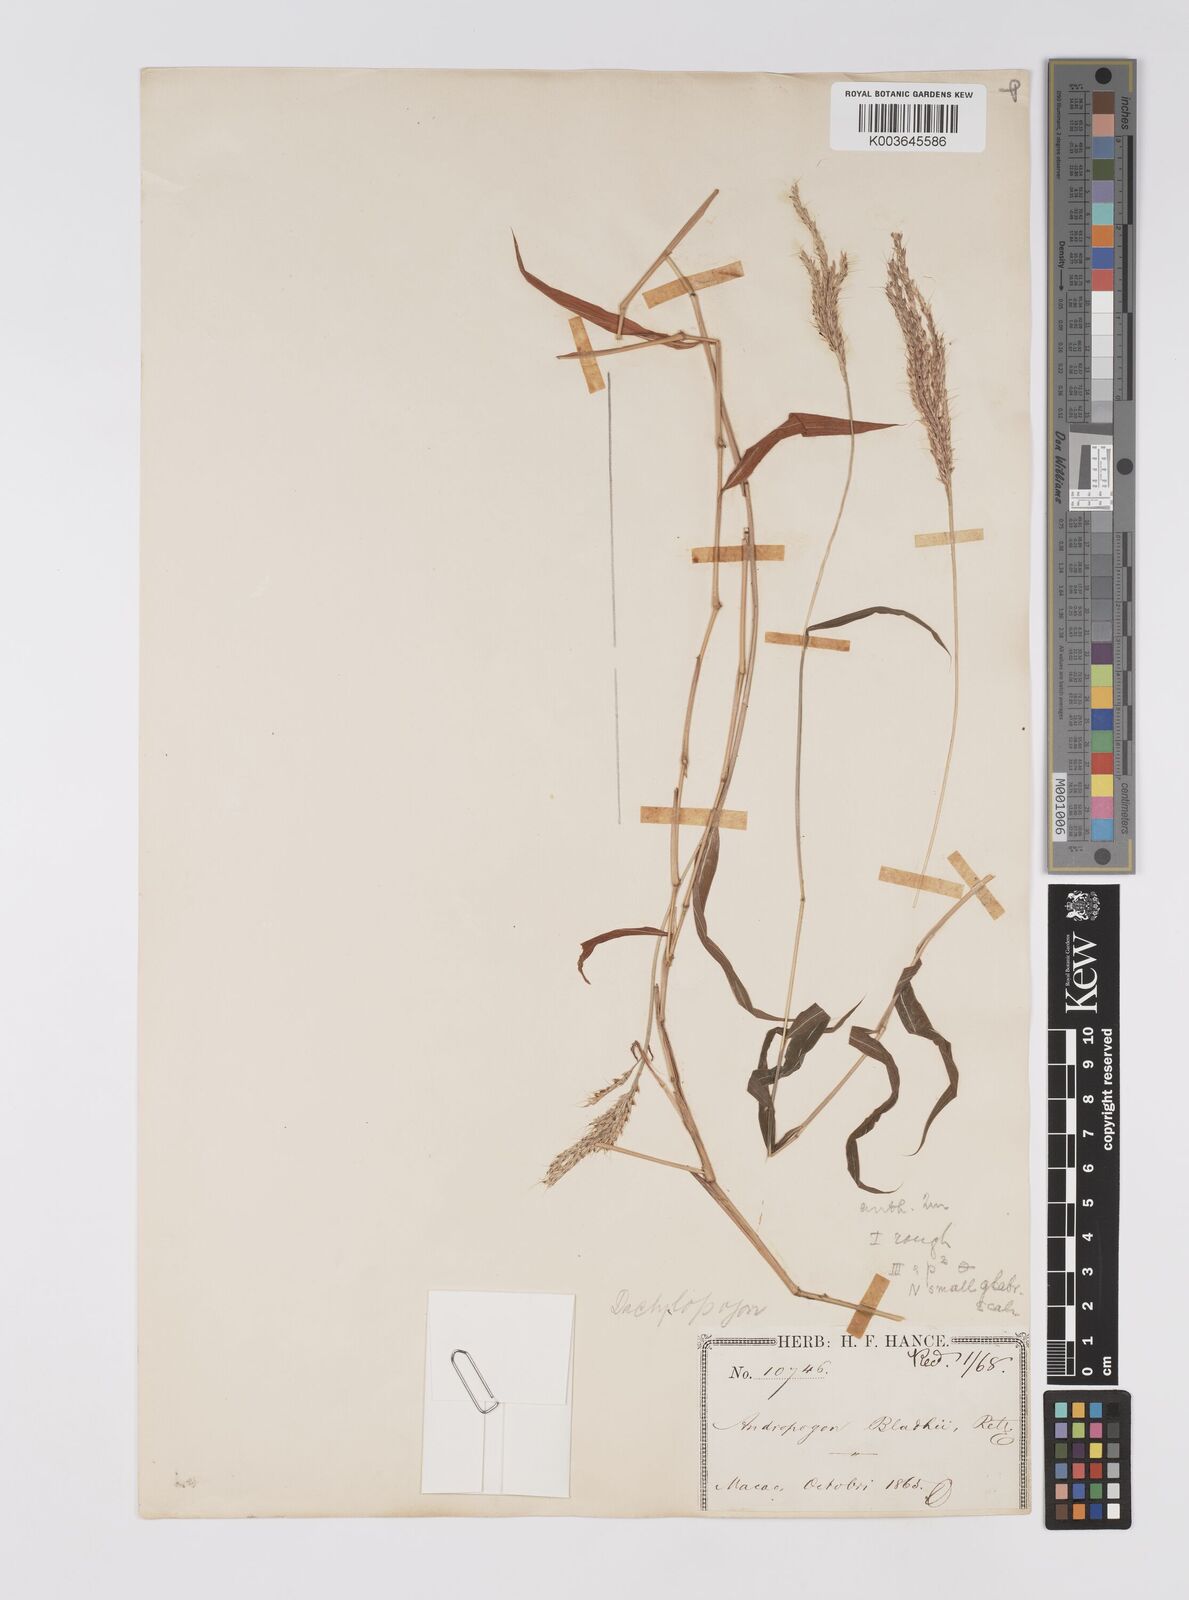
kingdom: Plantae
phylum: Tracheophyta
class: Liliopsida
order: Poales
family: Poaceae
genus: Microstegium
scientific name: Microstegium fasciculatum
